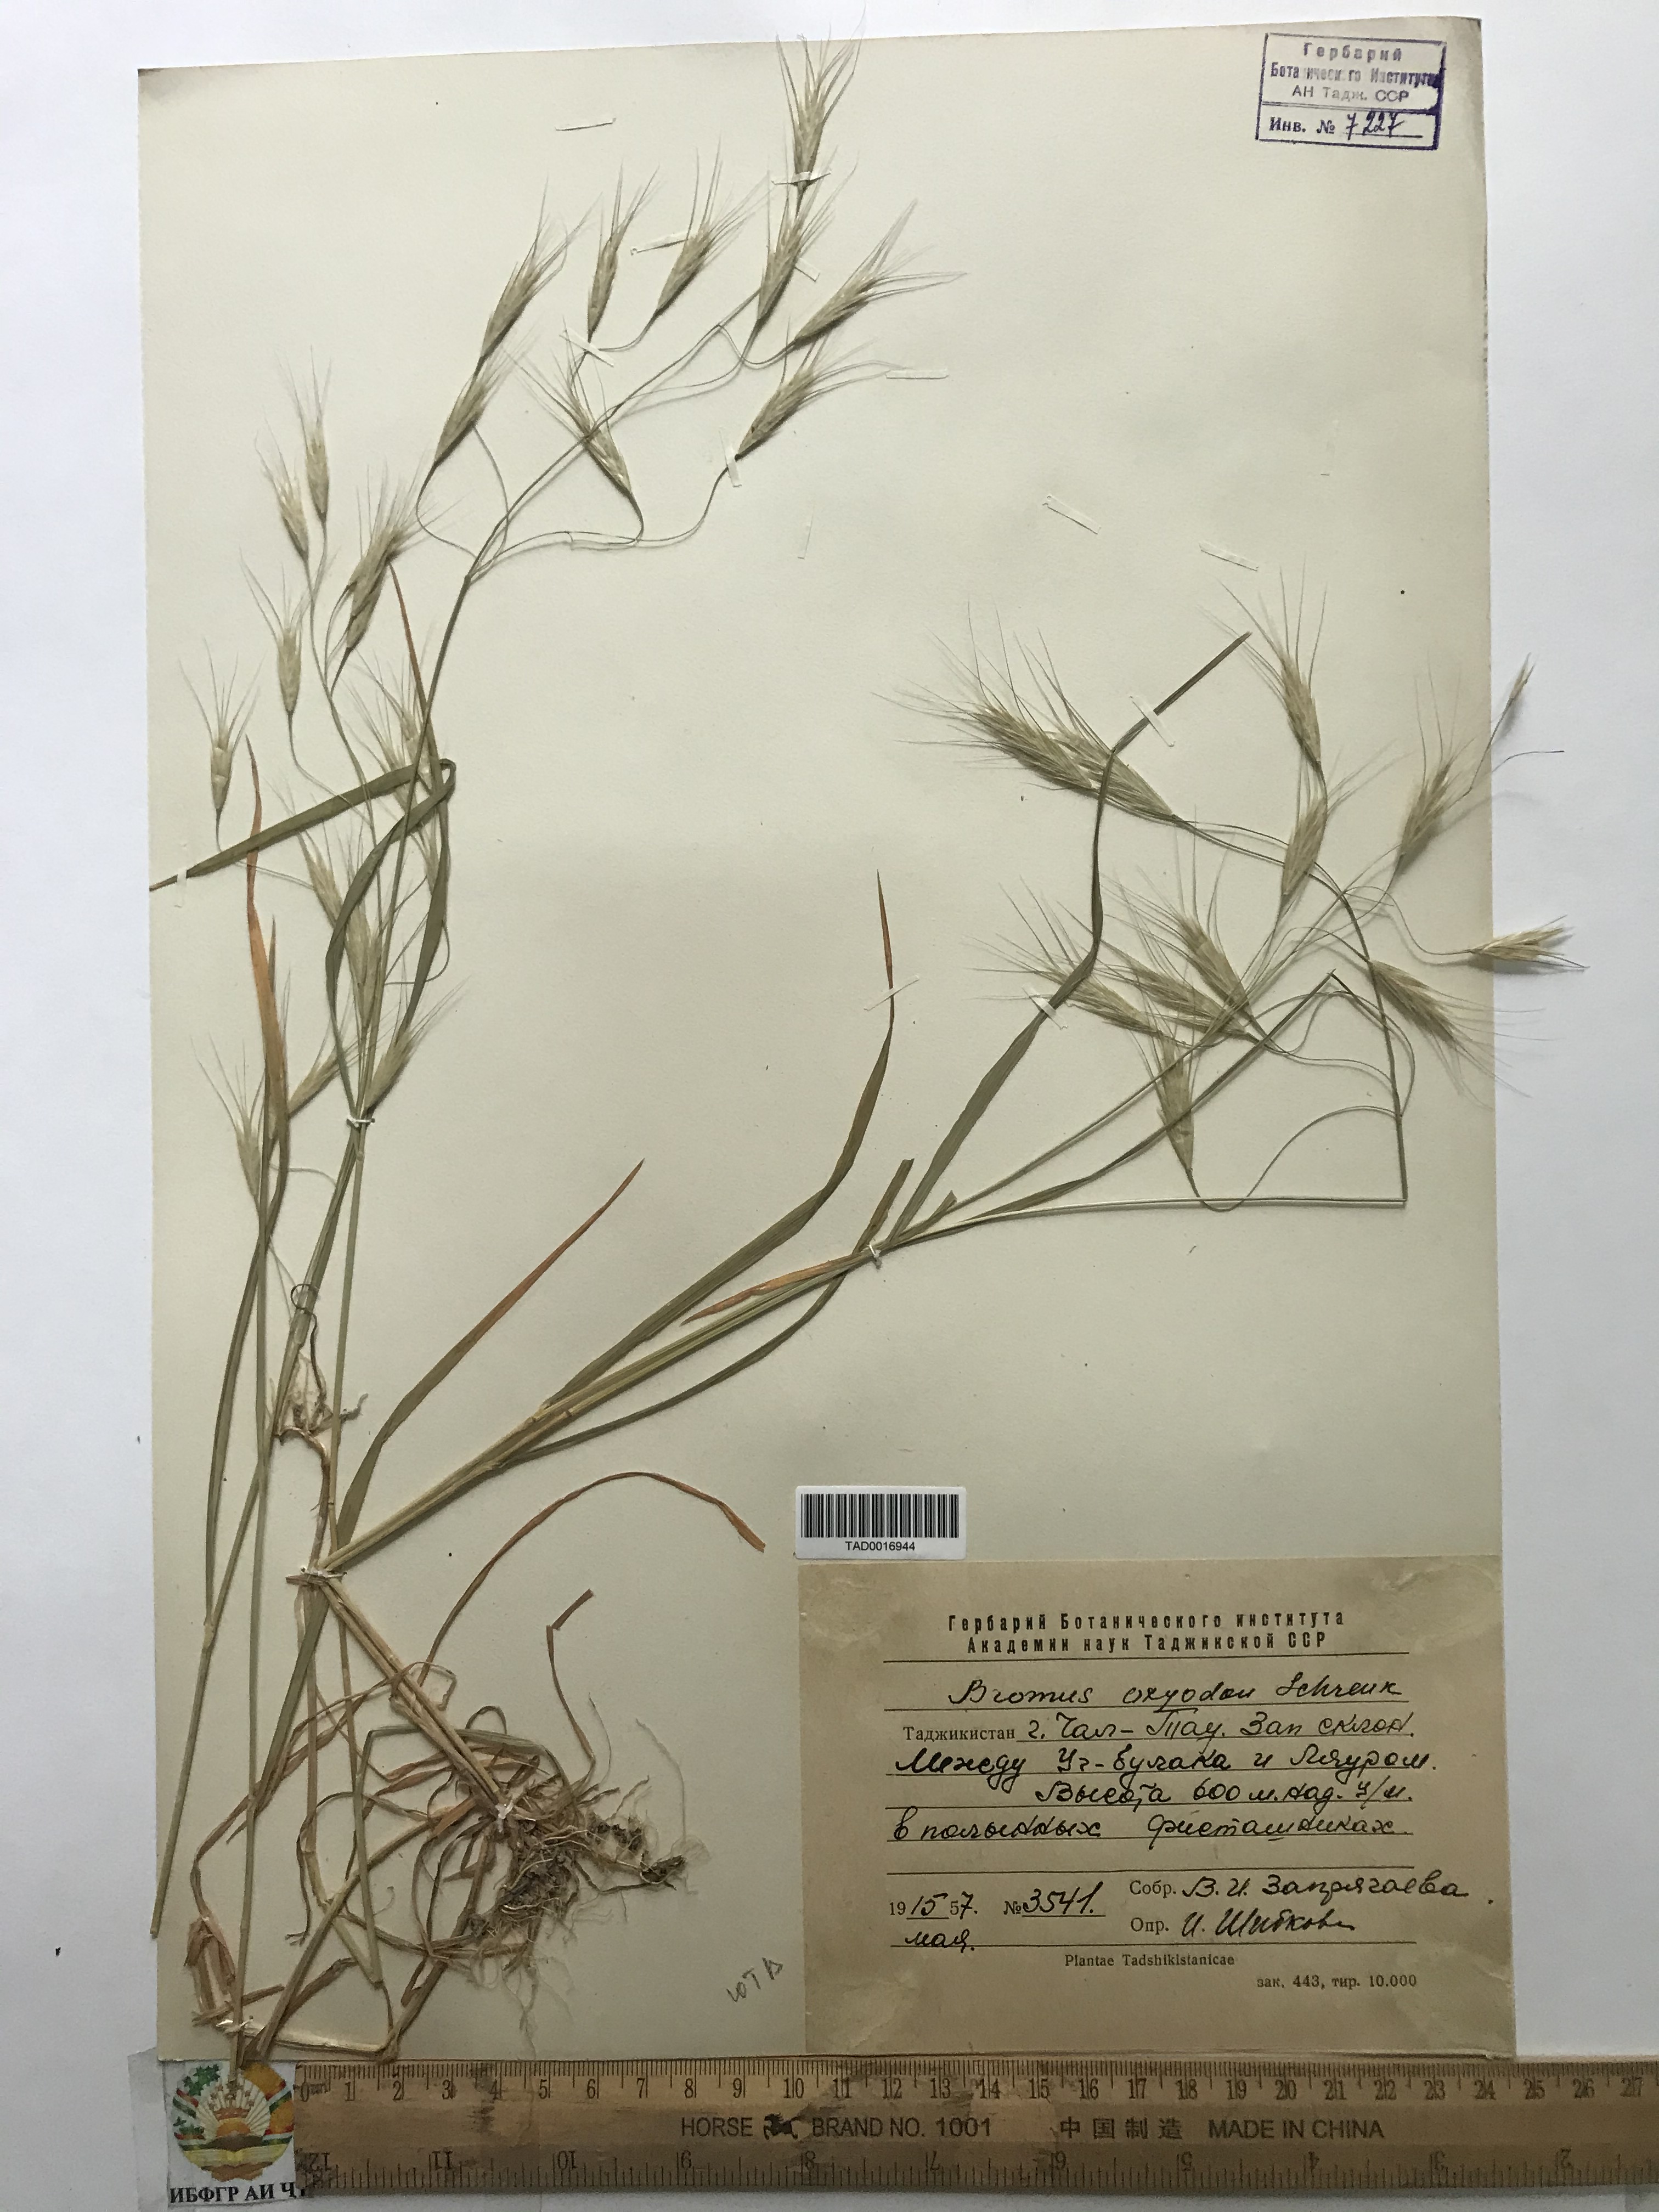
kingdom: Plantae
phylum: Tracheophyta
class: Liliopsida
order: Poales
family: Poaceae
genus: Bromus
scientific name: Bromus oxyodon
